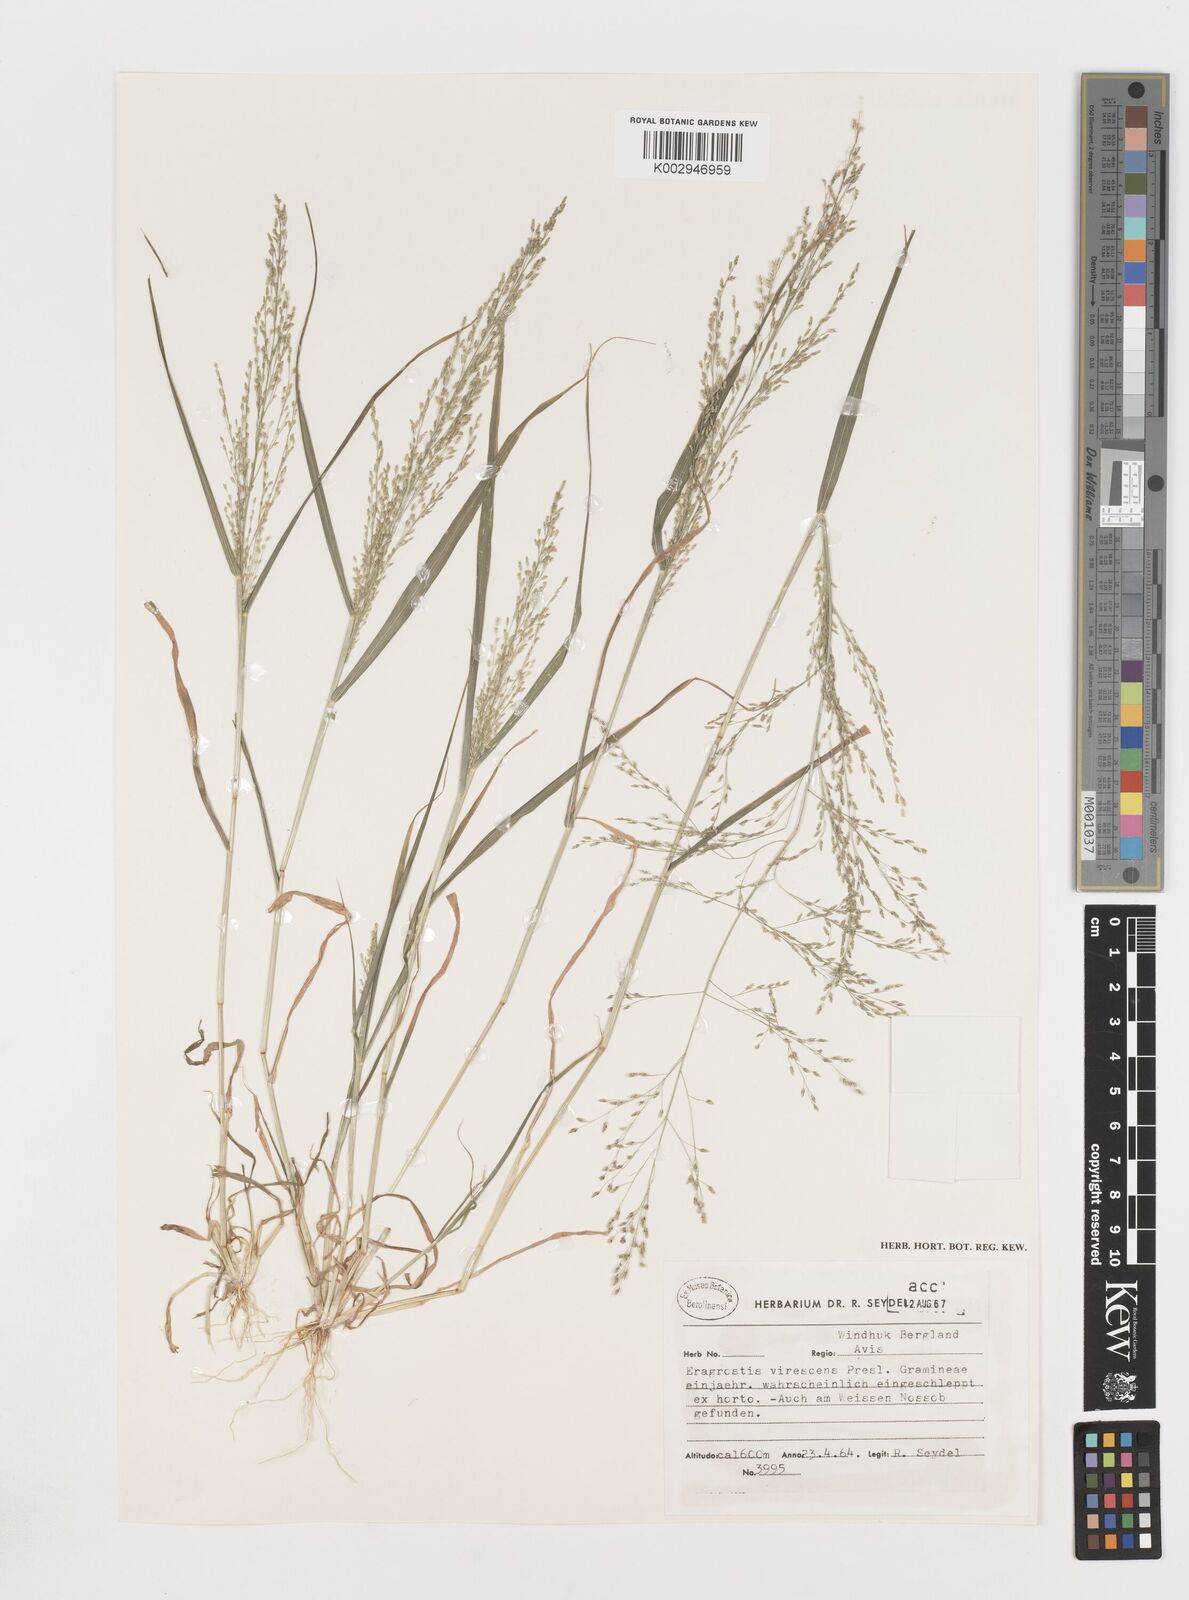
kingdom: Plantae
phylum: Tracheophyta
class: Liliopsida
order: Poales
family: Poaceae
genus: Eragrostis
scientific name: Eragrostis
